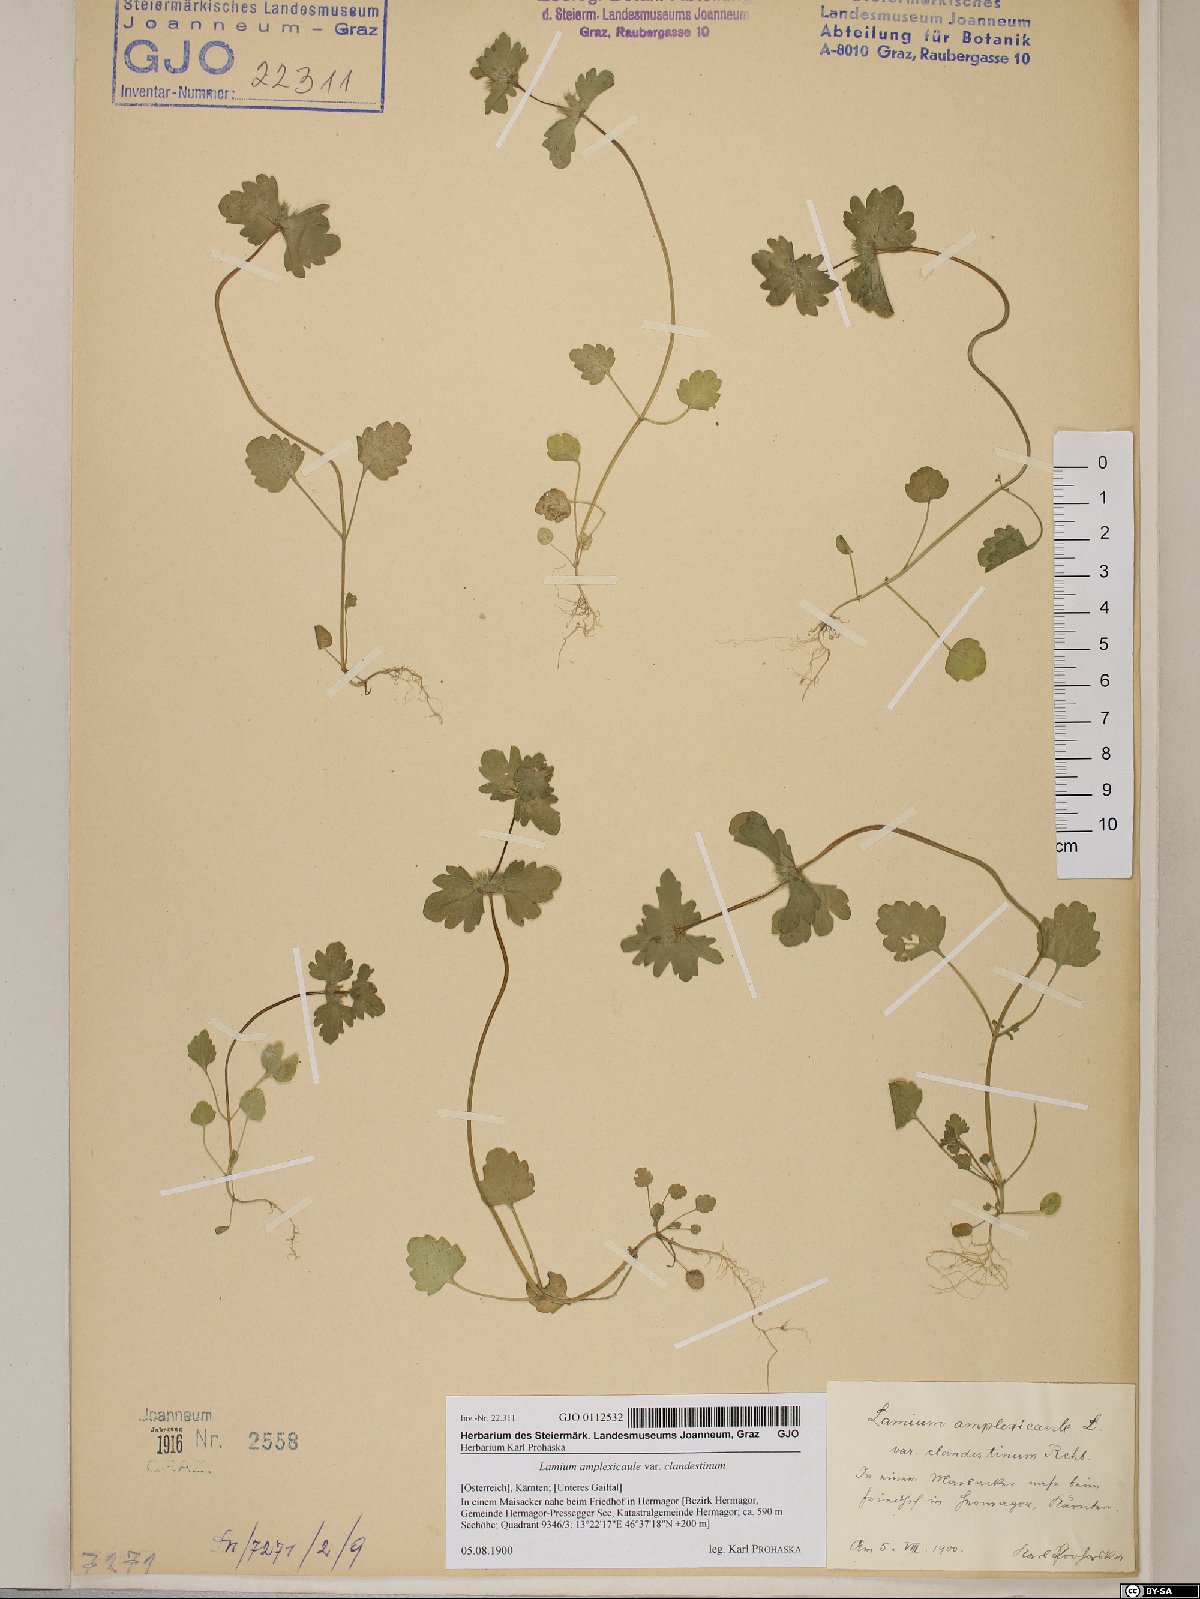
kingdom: Plantae
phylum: Tracheophyta
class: Magnoliopsida
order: Lamiales
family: Lamiaceae
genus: Lamium
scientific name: Lamium amplexicaule
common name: Henbit dead-nettle
